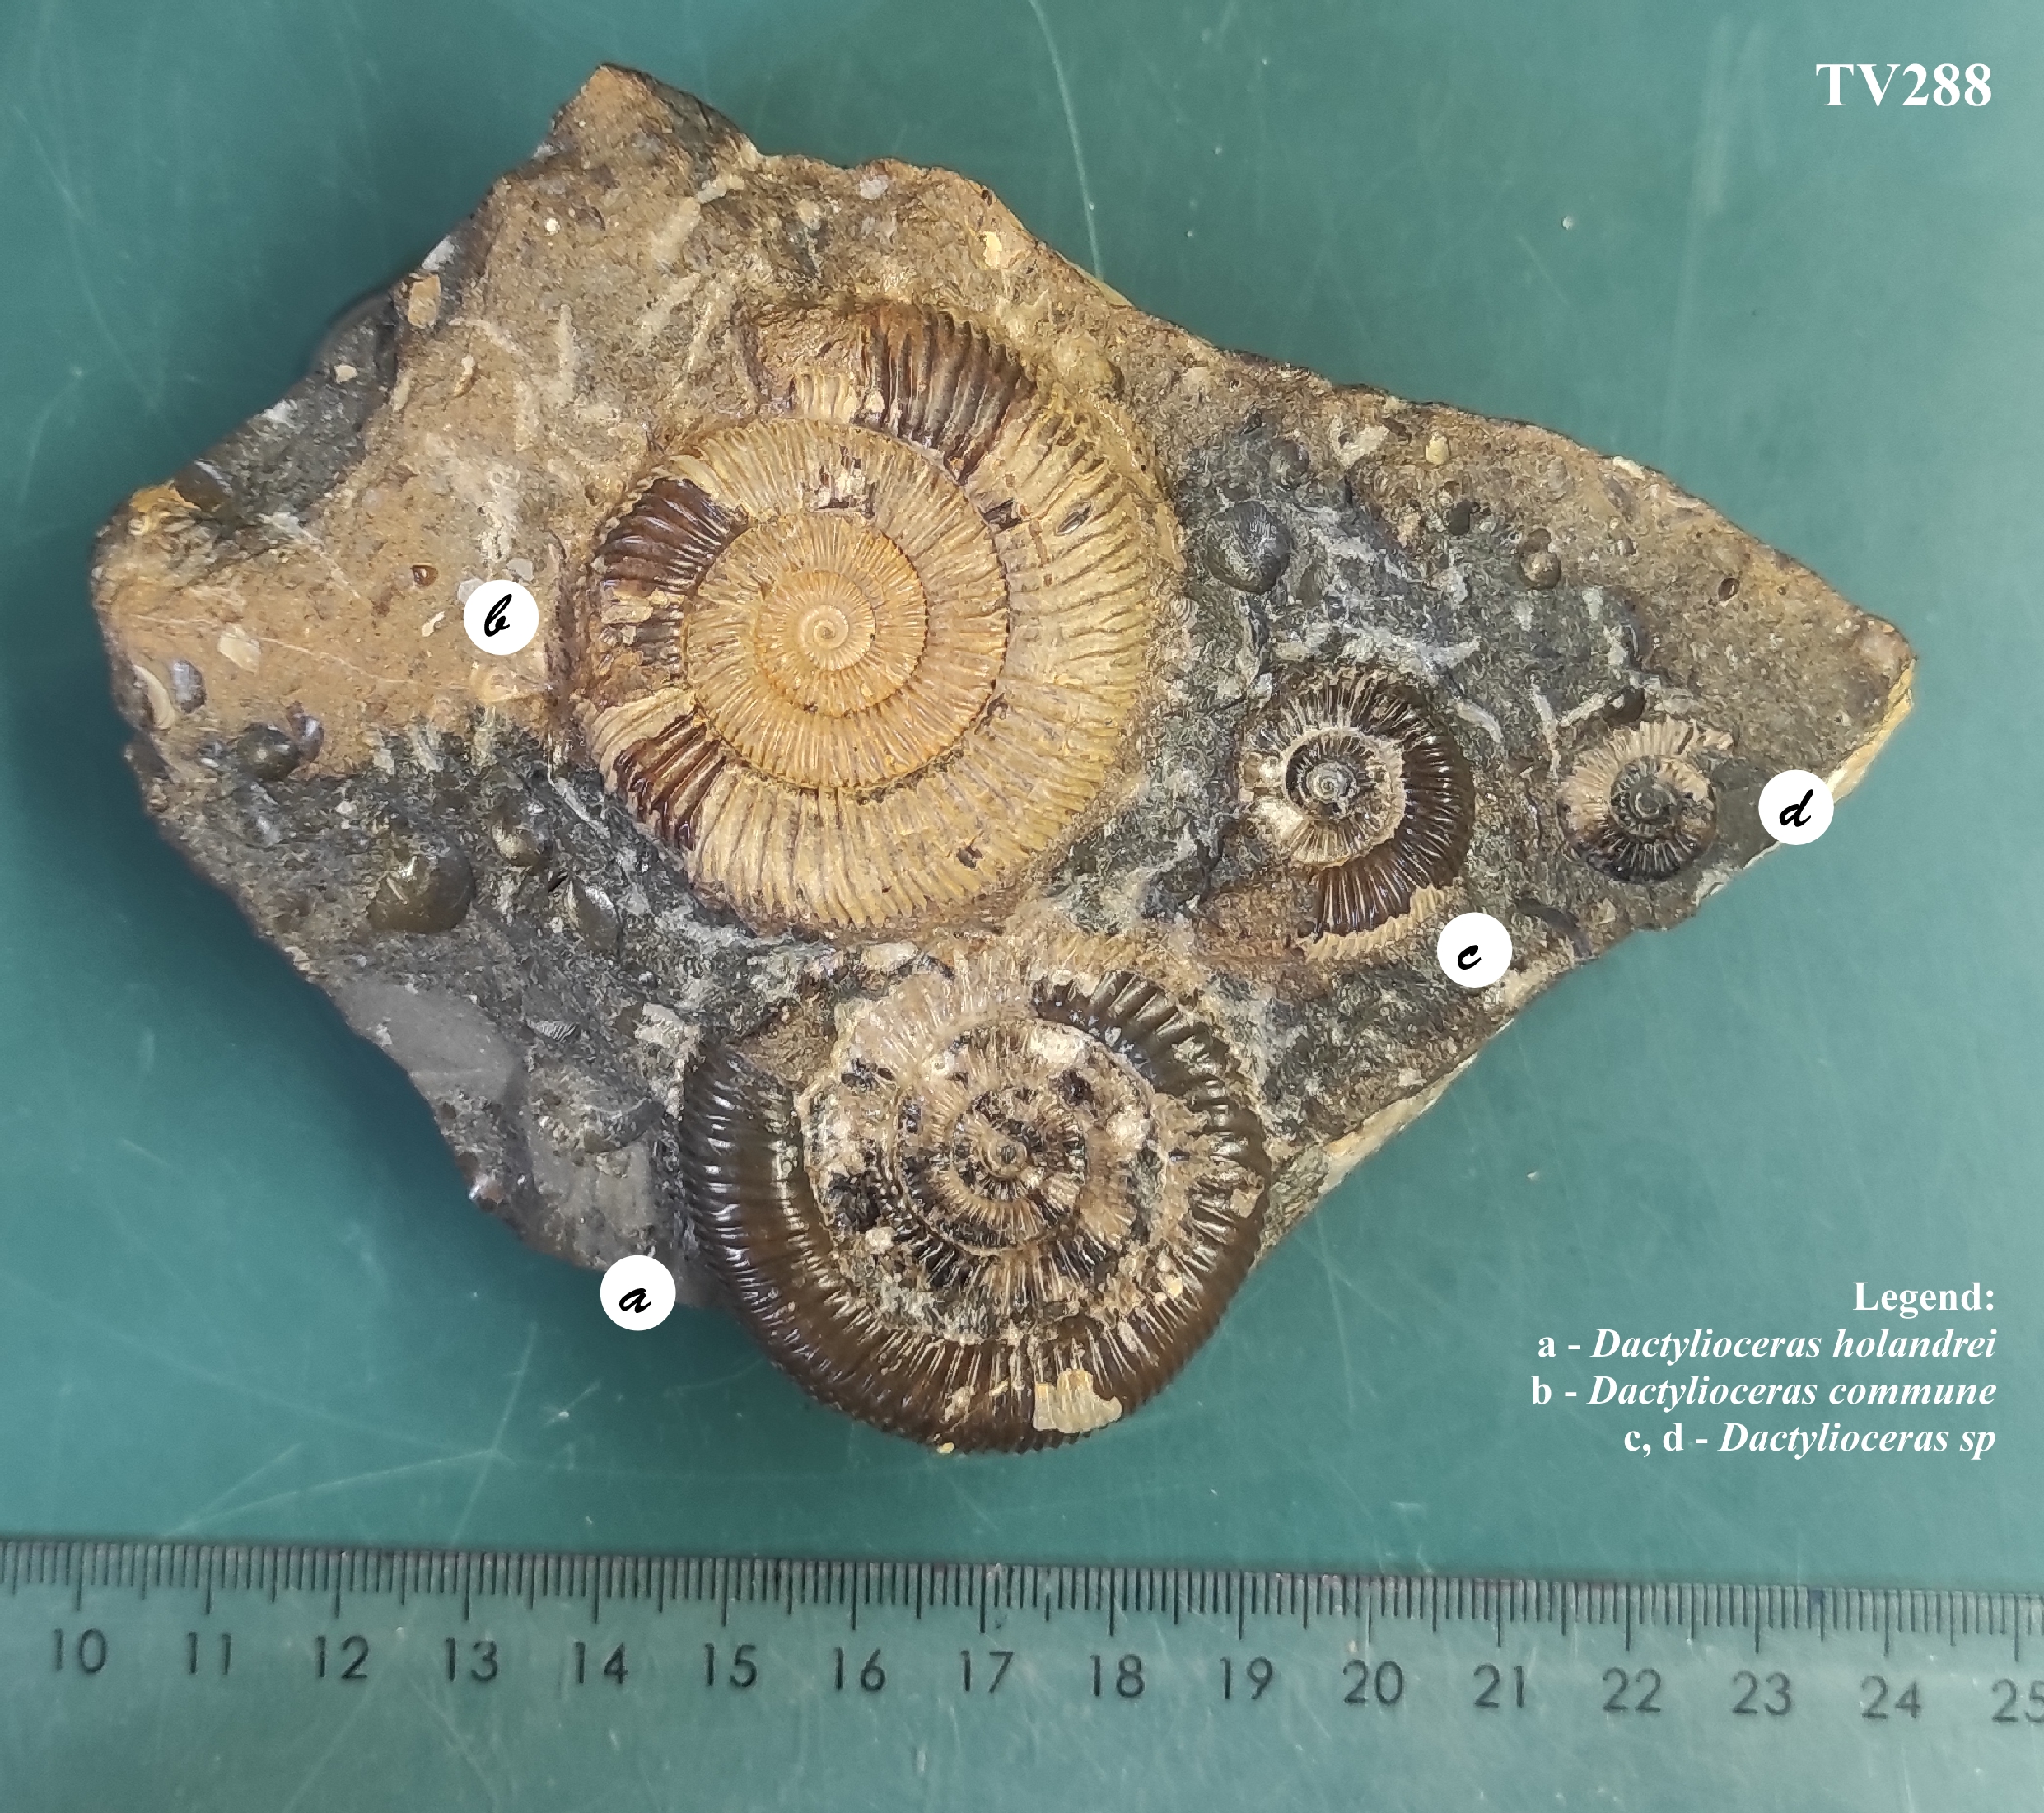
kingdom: Animalia
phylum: Mollusca
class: Cephalopoda
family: Dactylioceratidae
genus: Dactylioceras
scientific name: Dactylioceras
